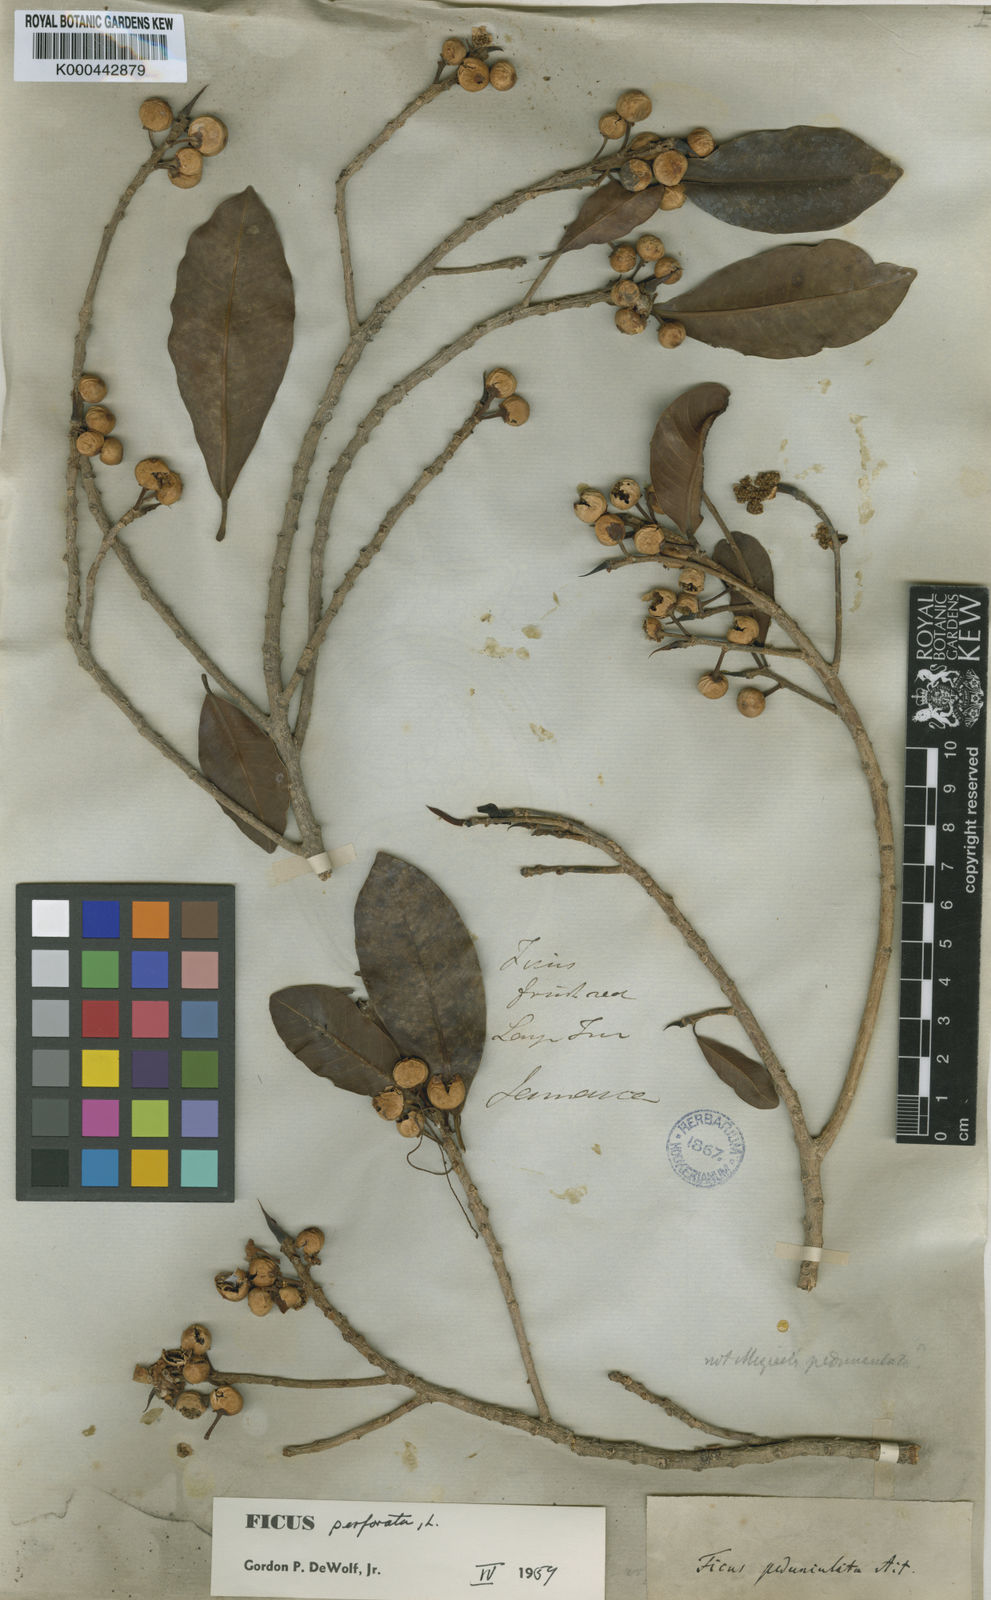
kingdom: Plantae
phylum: Tracheophyta
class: Magnoliopsida
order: Rosales
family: Moraceae
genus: Ficus
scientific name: Ficus americana
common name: Jamaican cherry fig
